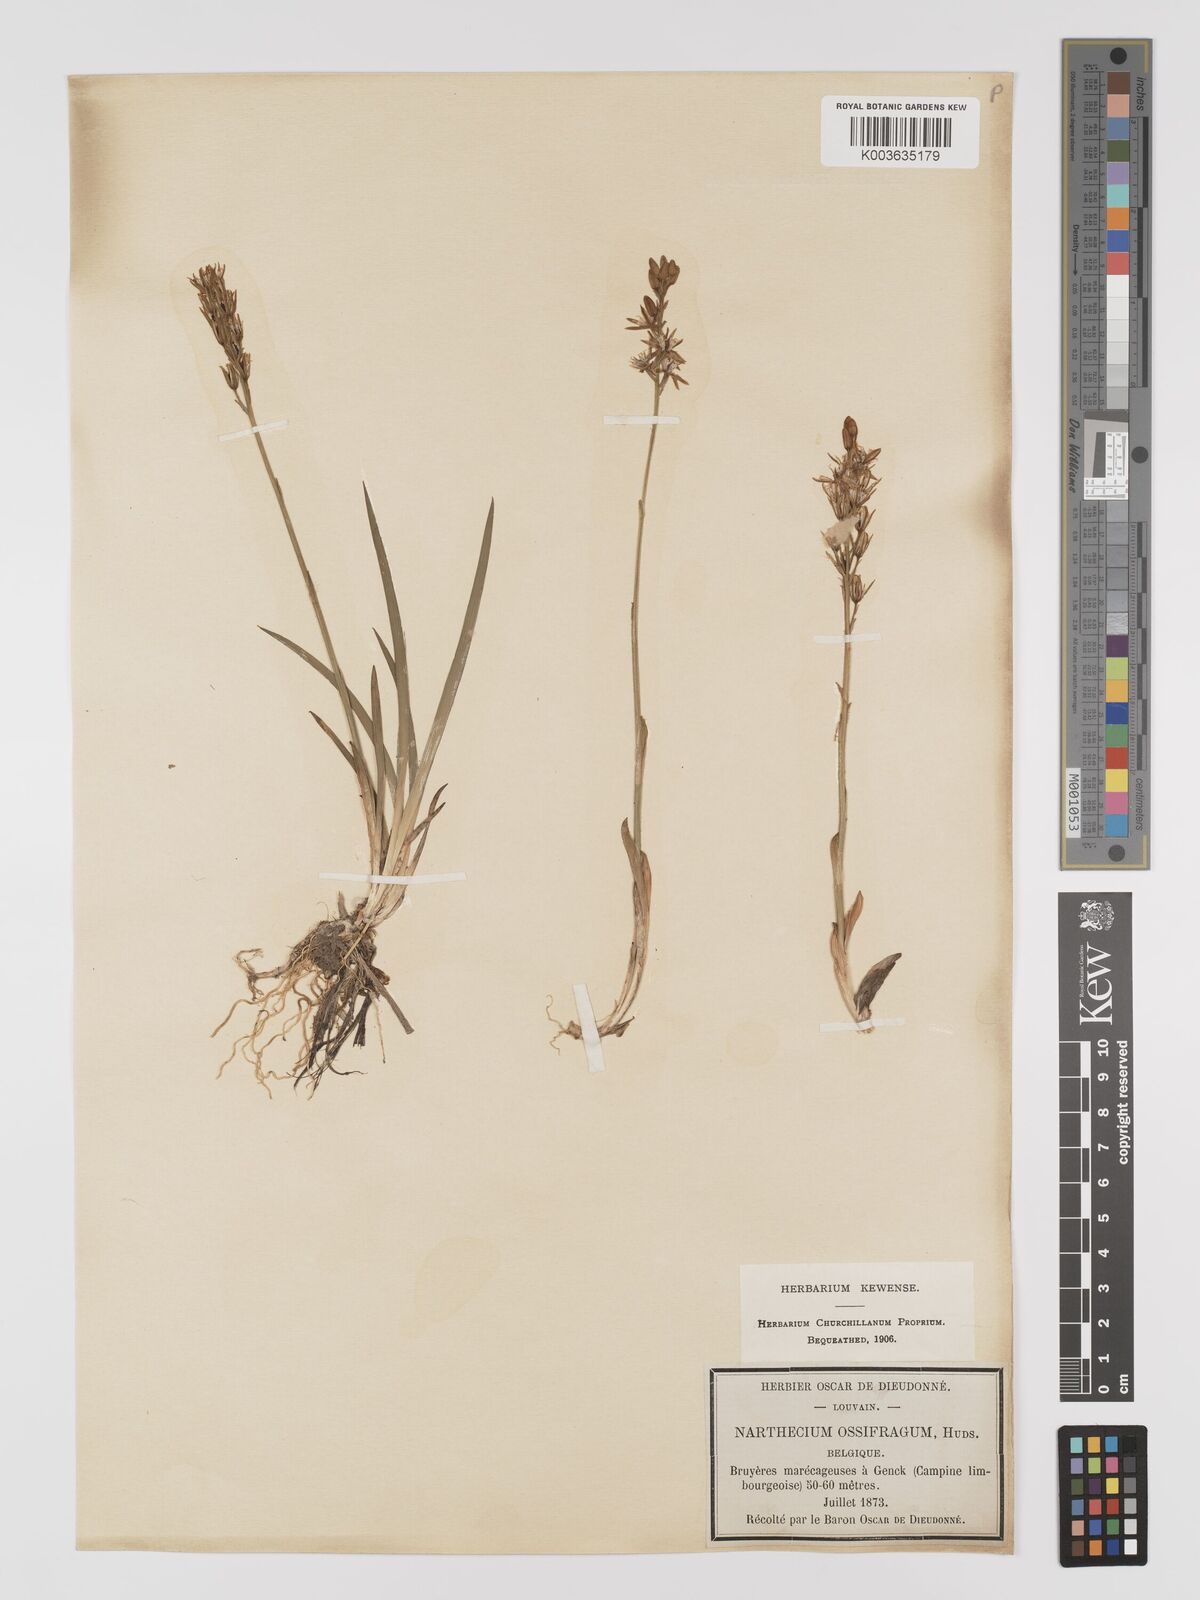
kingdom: Plantae
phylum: Tracheophyta
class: Liliopsida
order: Dioscoreales
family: Nartheciaceae
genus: Narthecium
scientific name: Narthecium ossifragum
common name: Bog asphodel
